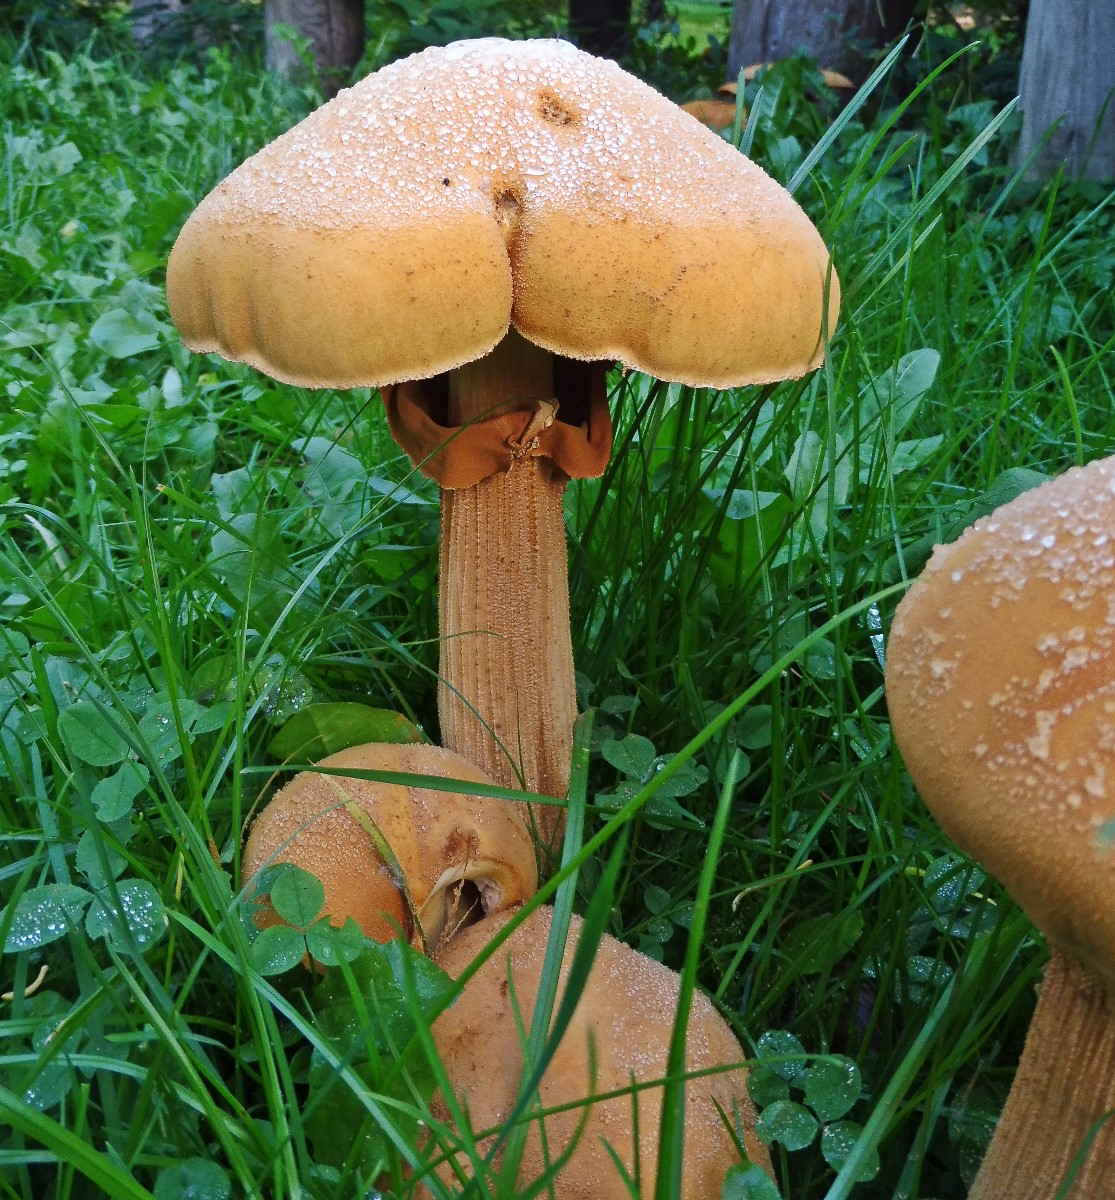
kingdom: Fungi
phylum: Basidiomycota
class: Agaricomycetes
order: Agaricales
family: Tricholomataceae
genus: Phaeolepiota
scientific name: Phaeolepiota aurea
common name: gyldenhat
